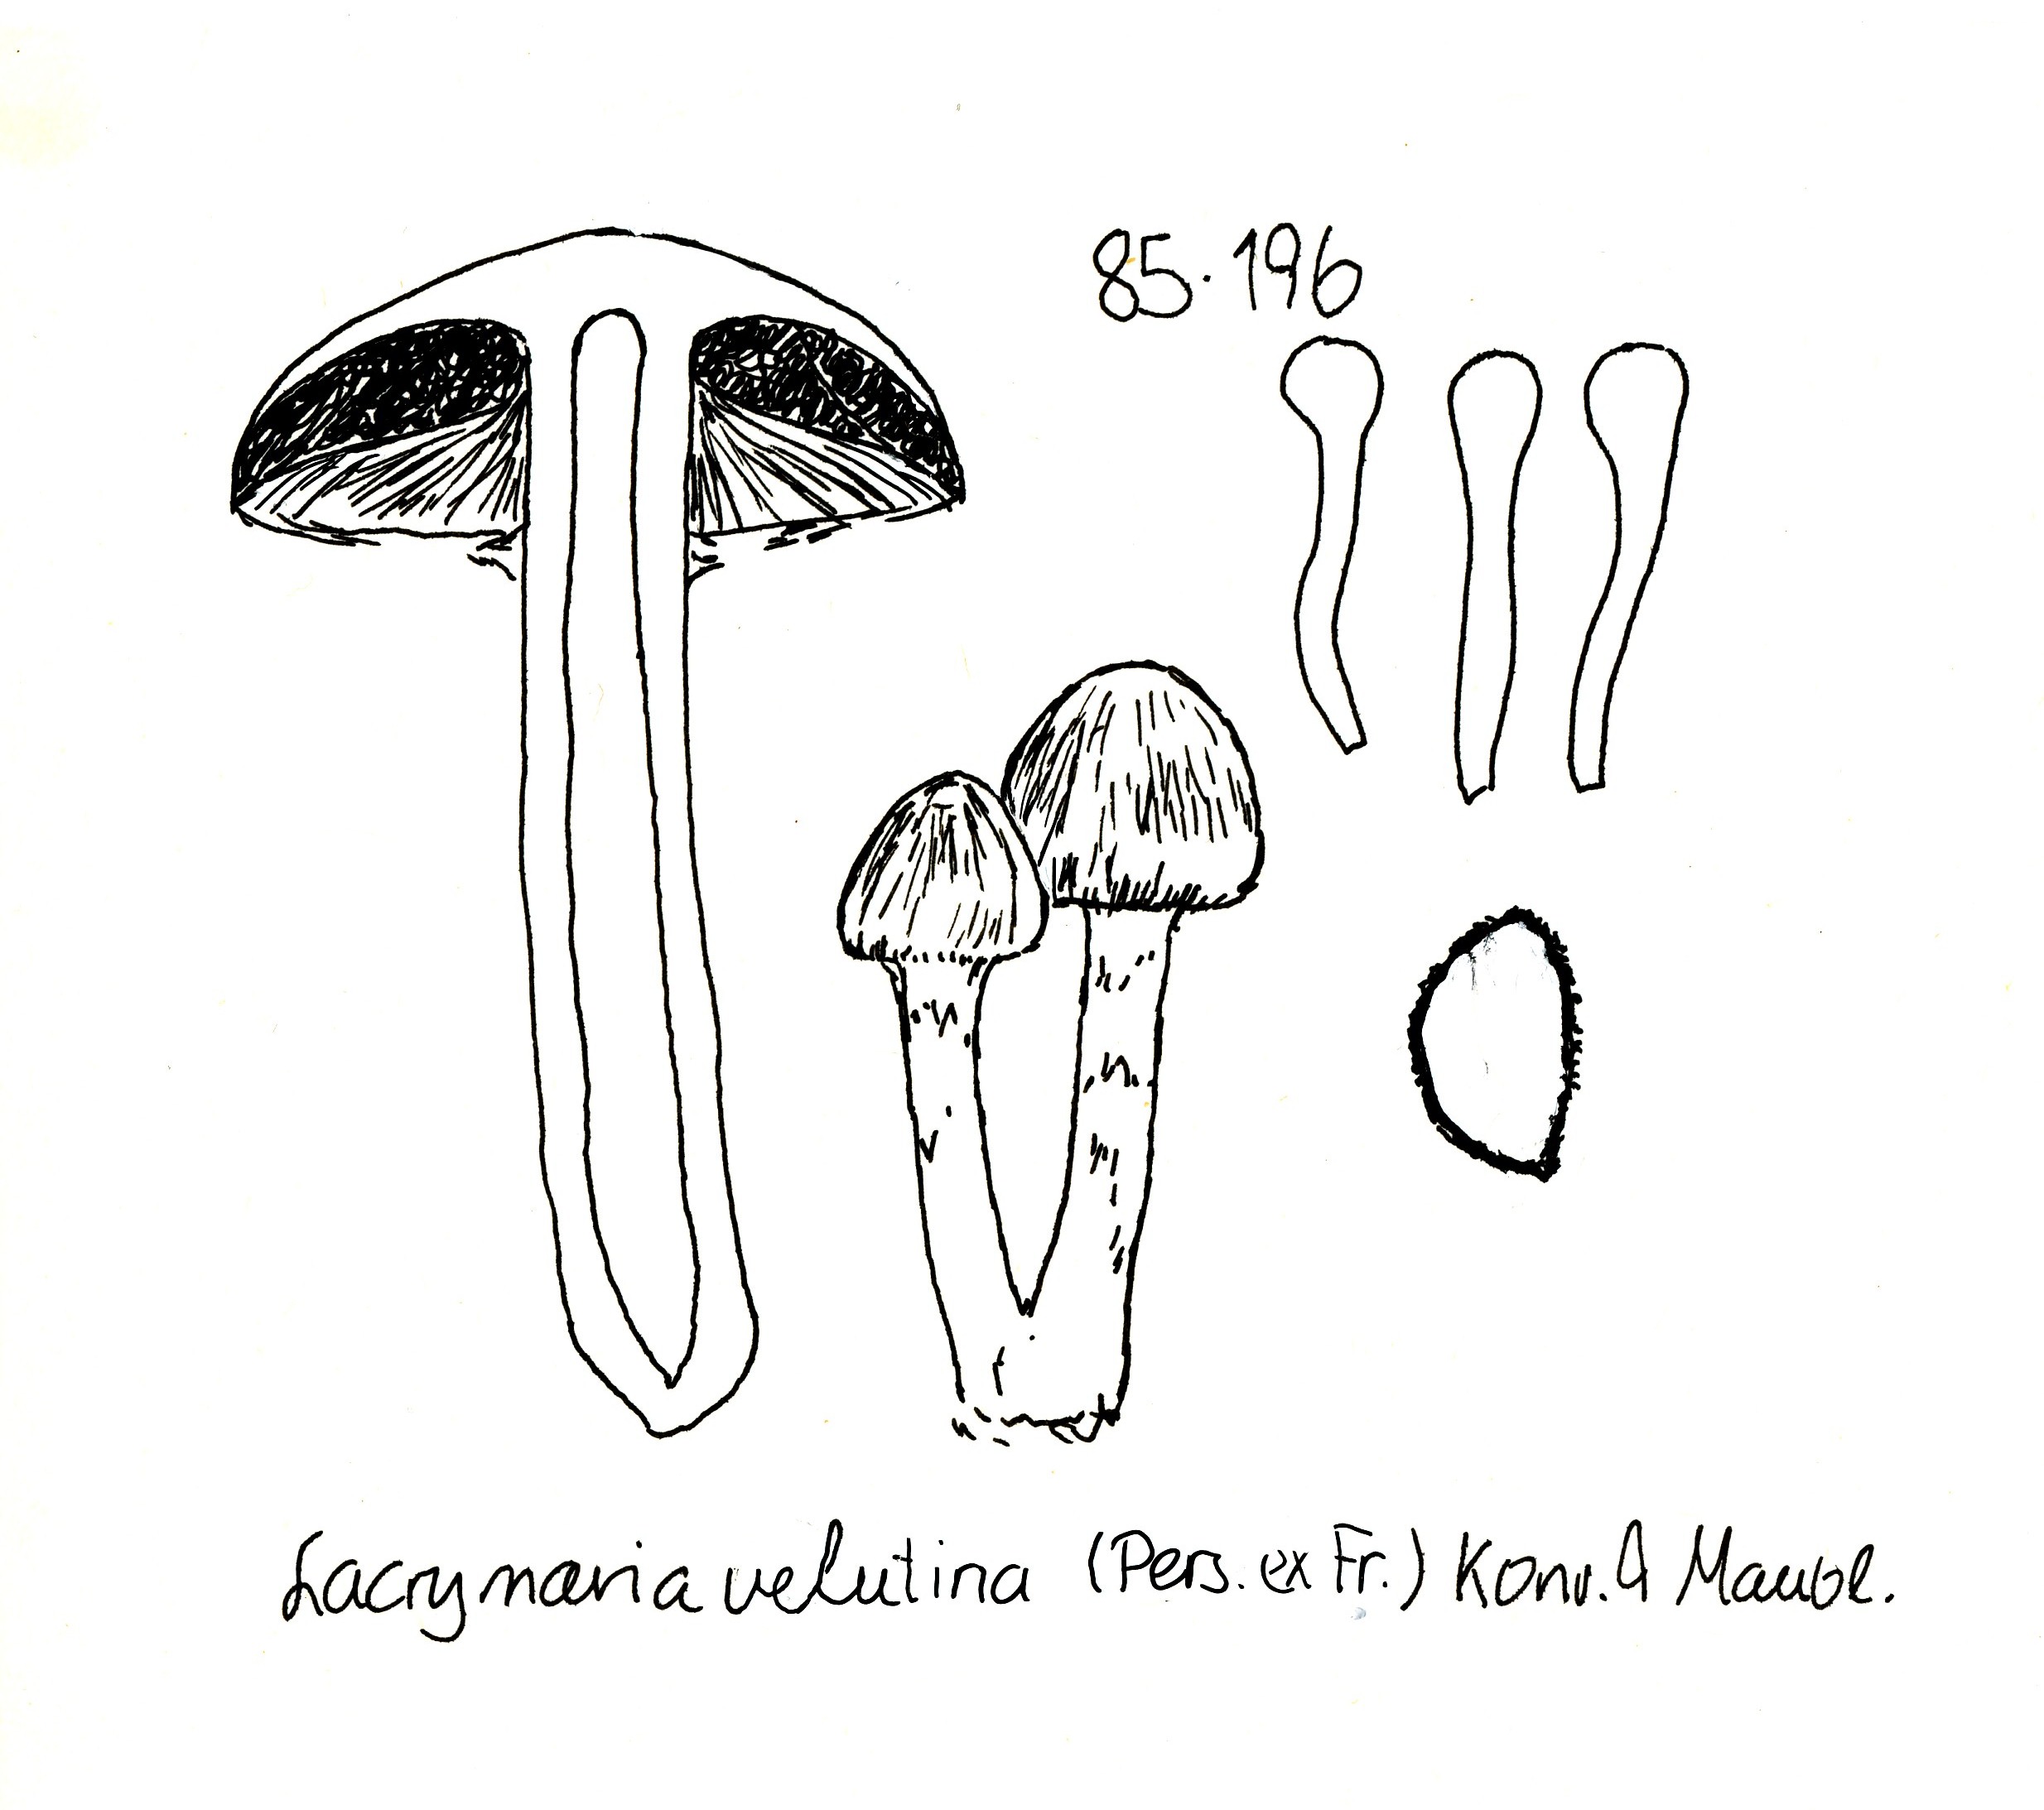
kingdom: Fungi
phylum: Basidiomycota
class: Agaricomycetes
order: Agaricales
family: Psathyrellaceae
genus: Lacrymaria
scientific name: Lacrymaria lacrymabunda
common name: grædende mørkhat
